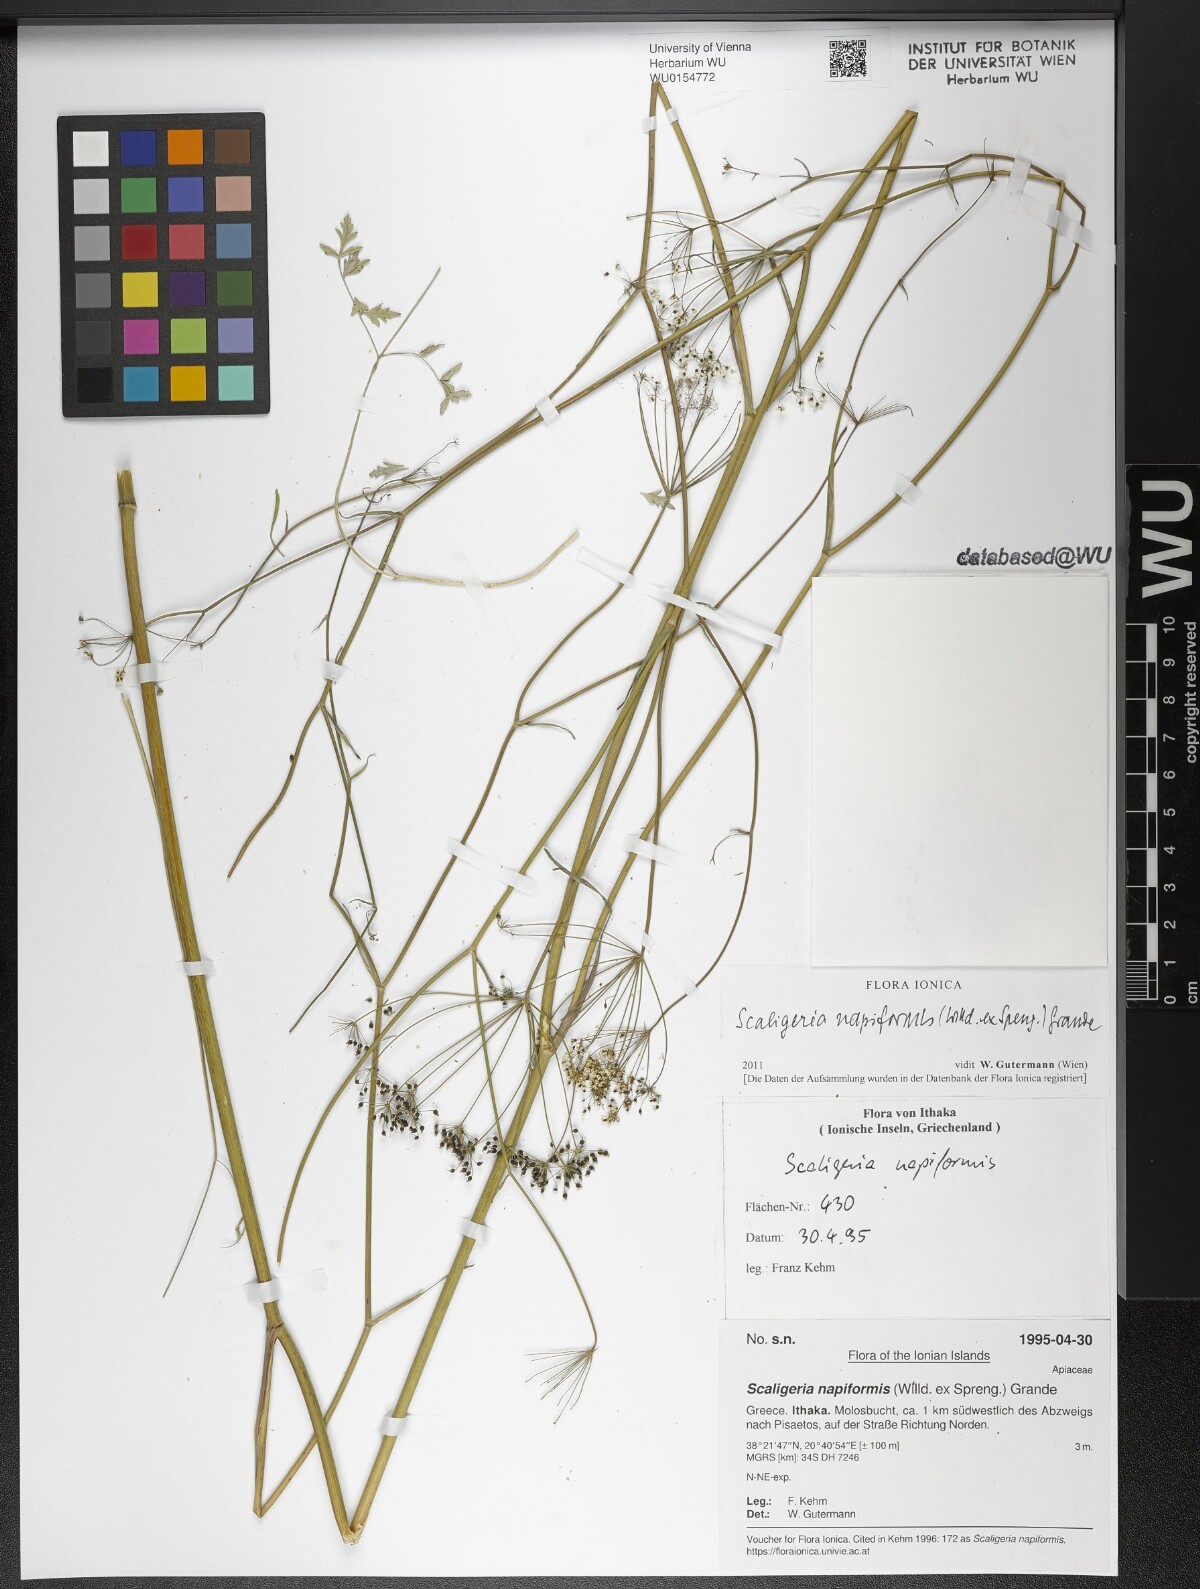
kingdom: Plantae
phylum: Tracheophyta
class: Magnoliopsida
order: Apiales
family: Apiaceae
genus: Scaligeria
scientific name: Scaligeria napiformis
